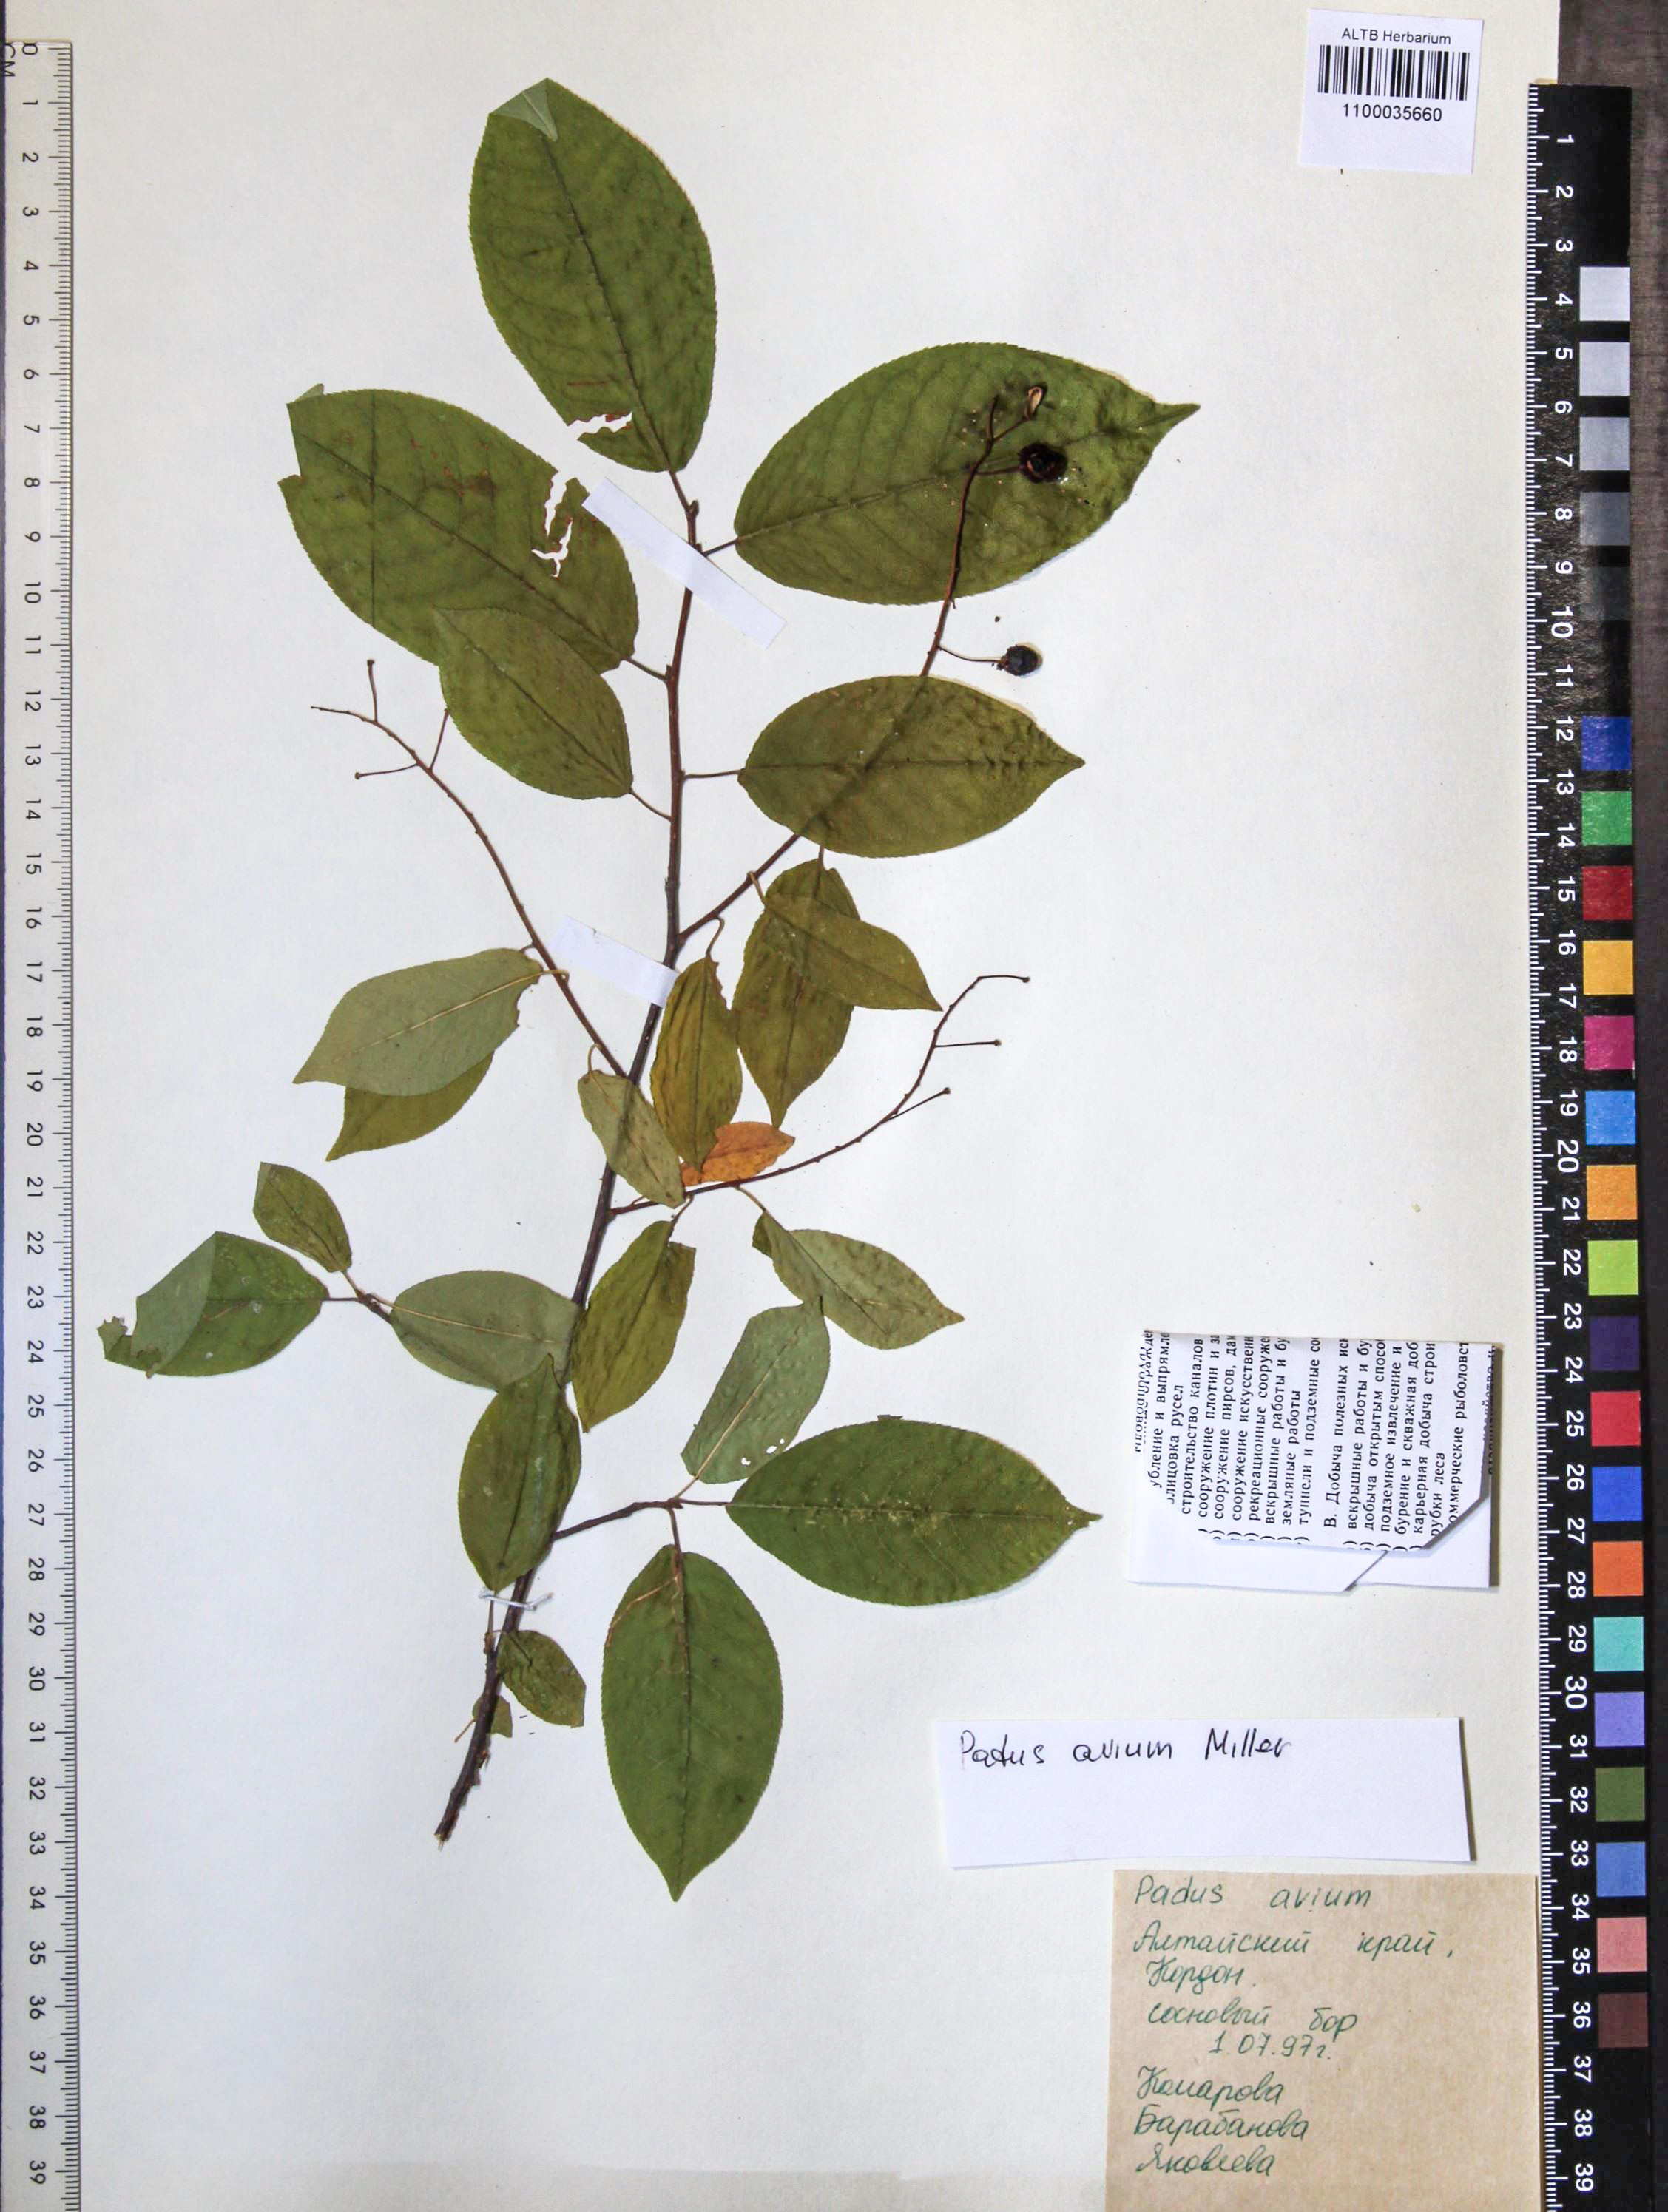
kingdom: Plantae
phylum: Tracheophyta
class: Magnoliopsida
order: Rosales
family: Rosaceae
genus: Prunus
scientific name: Prunus padus
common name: Bird cherry
